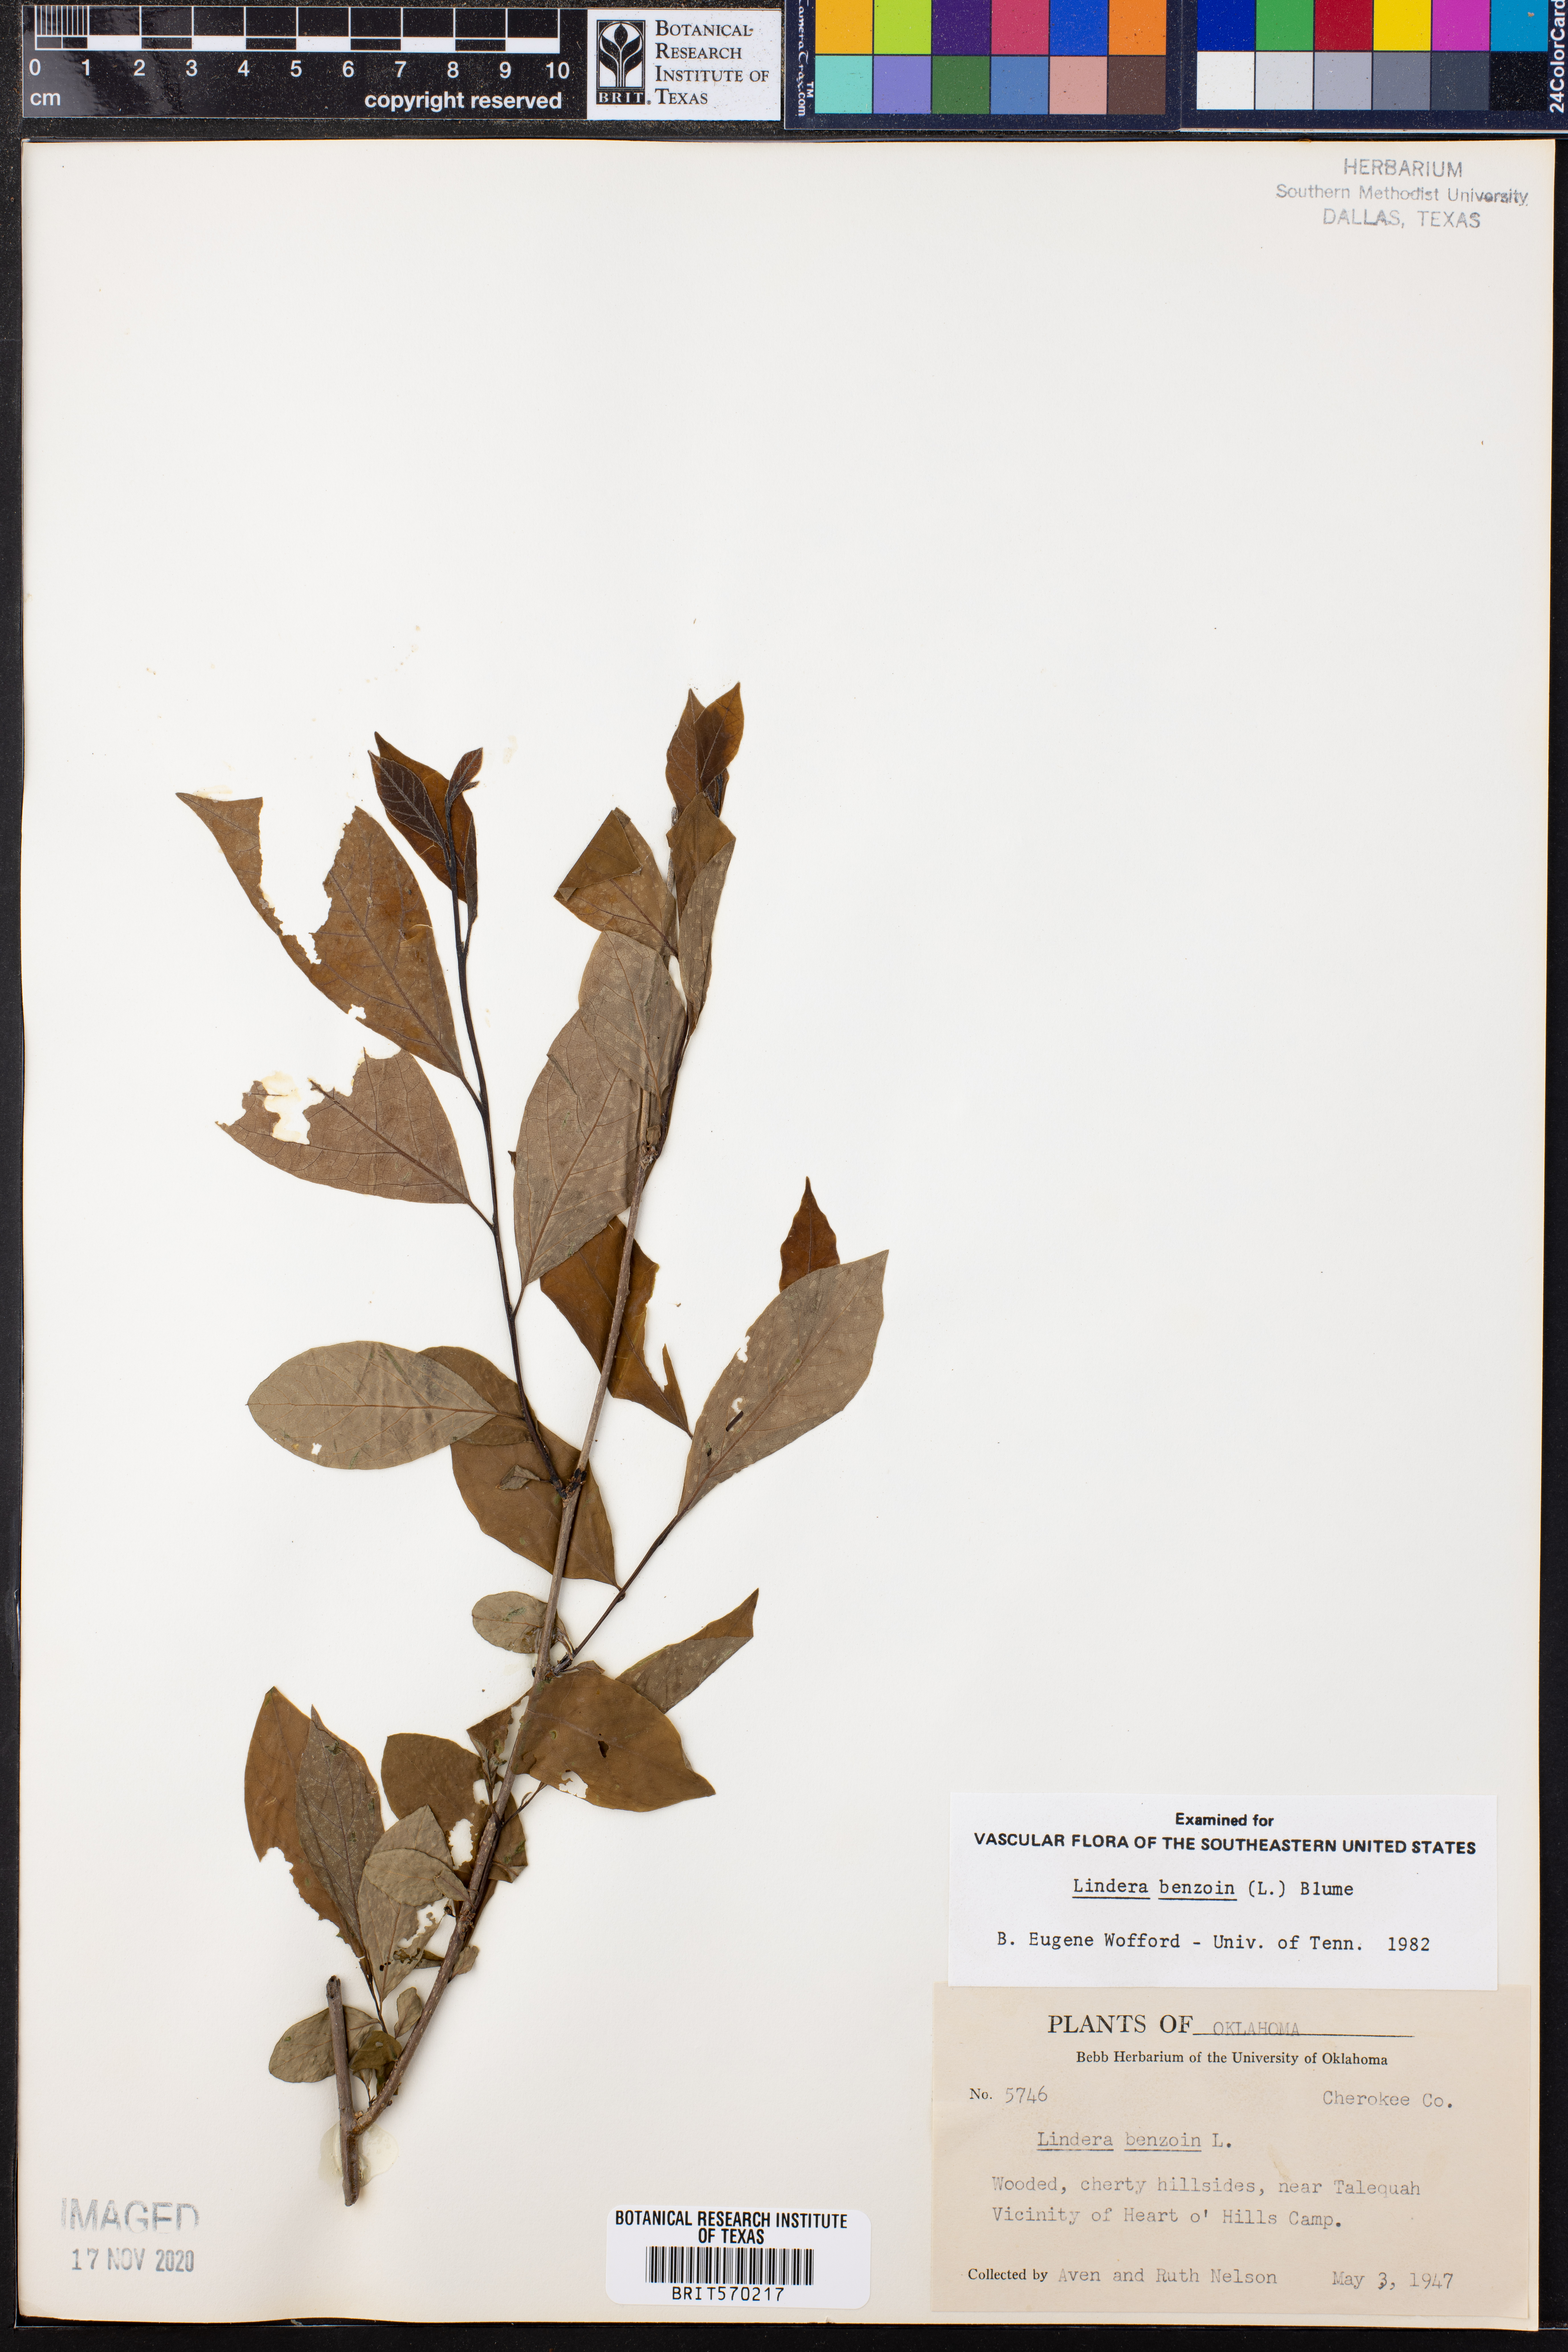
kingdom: Plantae
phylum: Tracheophyta
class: Magnoliopsida
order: Laurales
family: Lauraceae
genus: Lindera
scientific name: Lindera benzoin
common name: Spicebush
